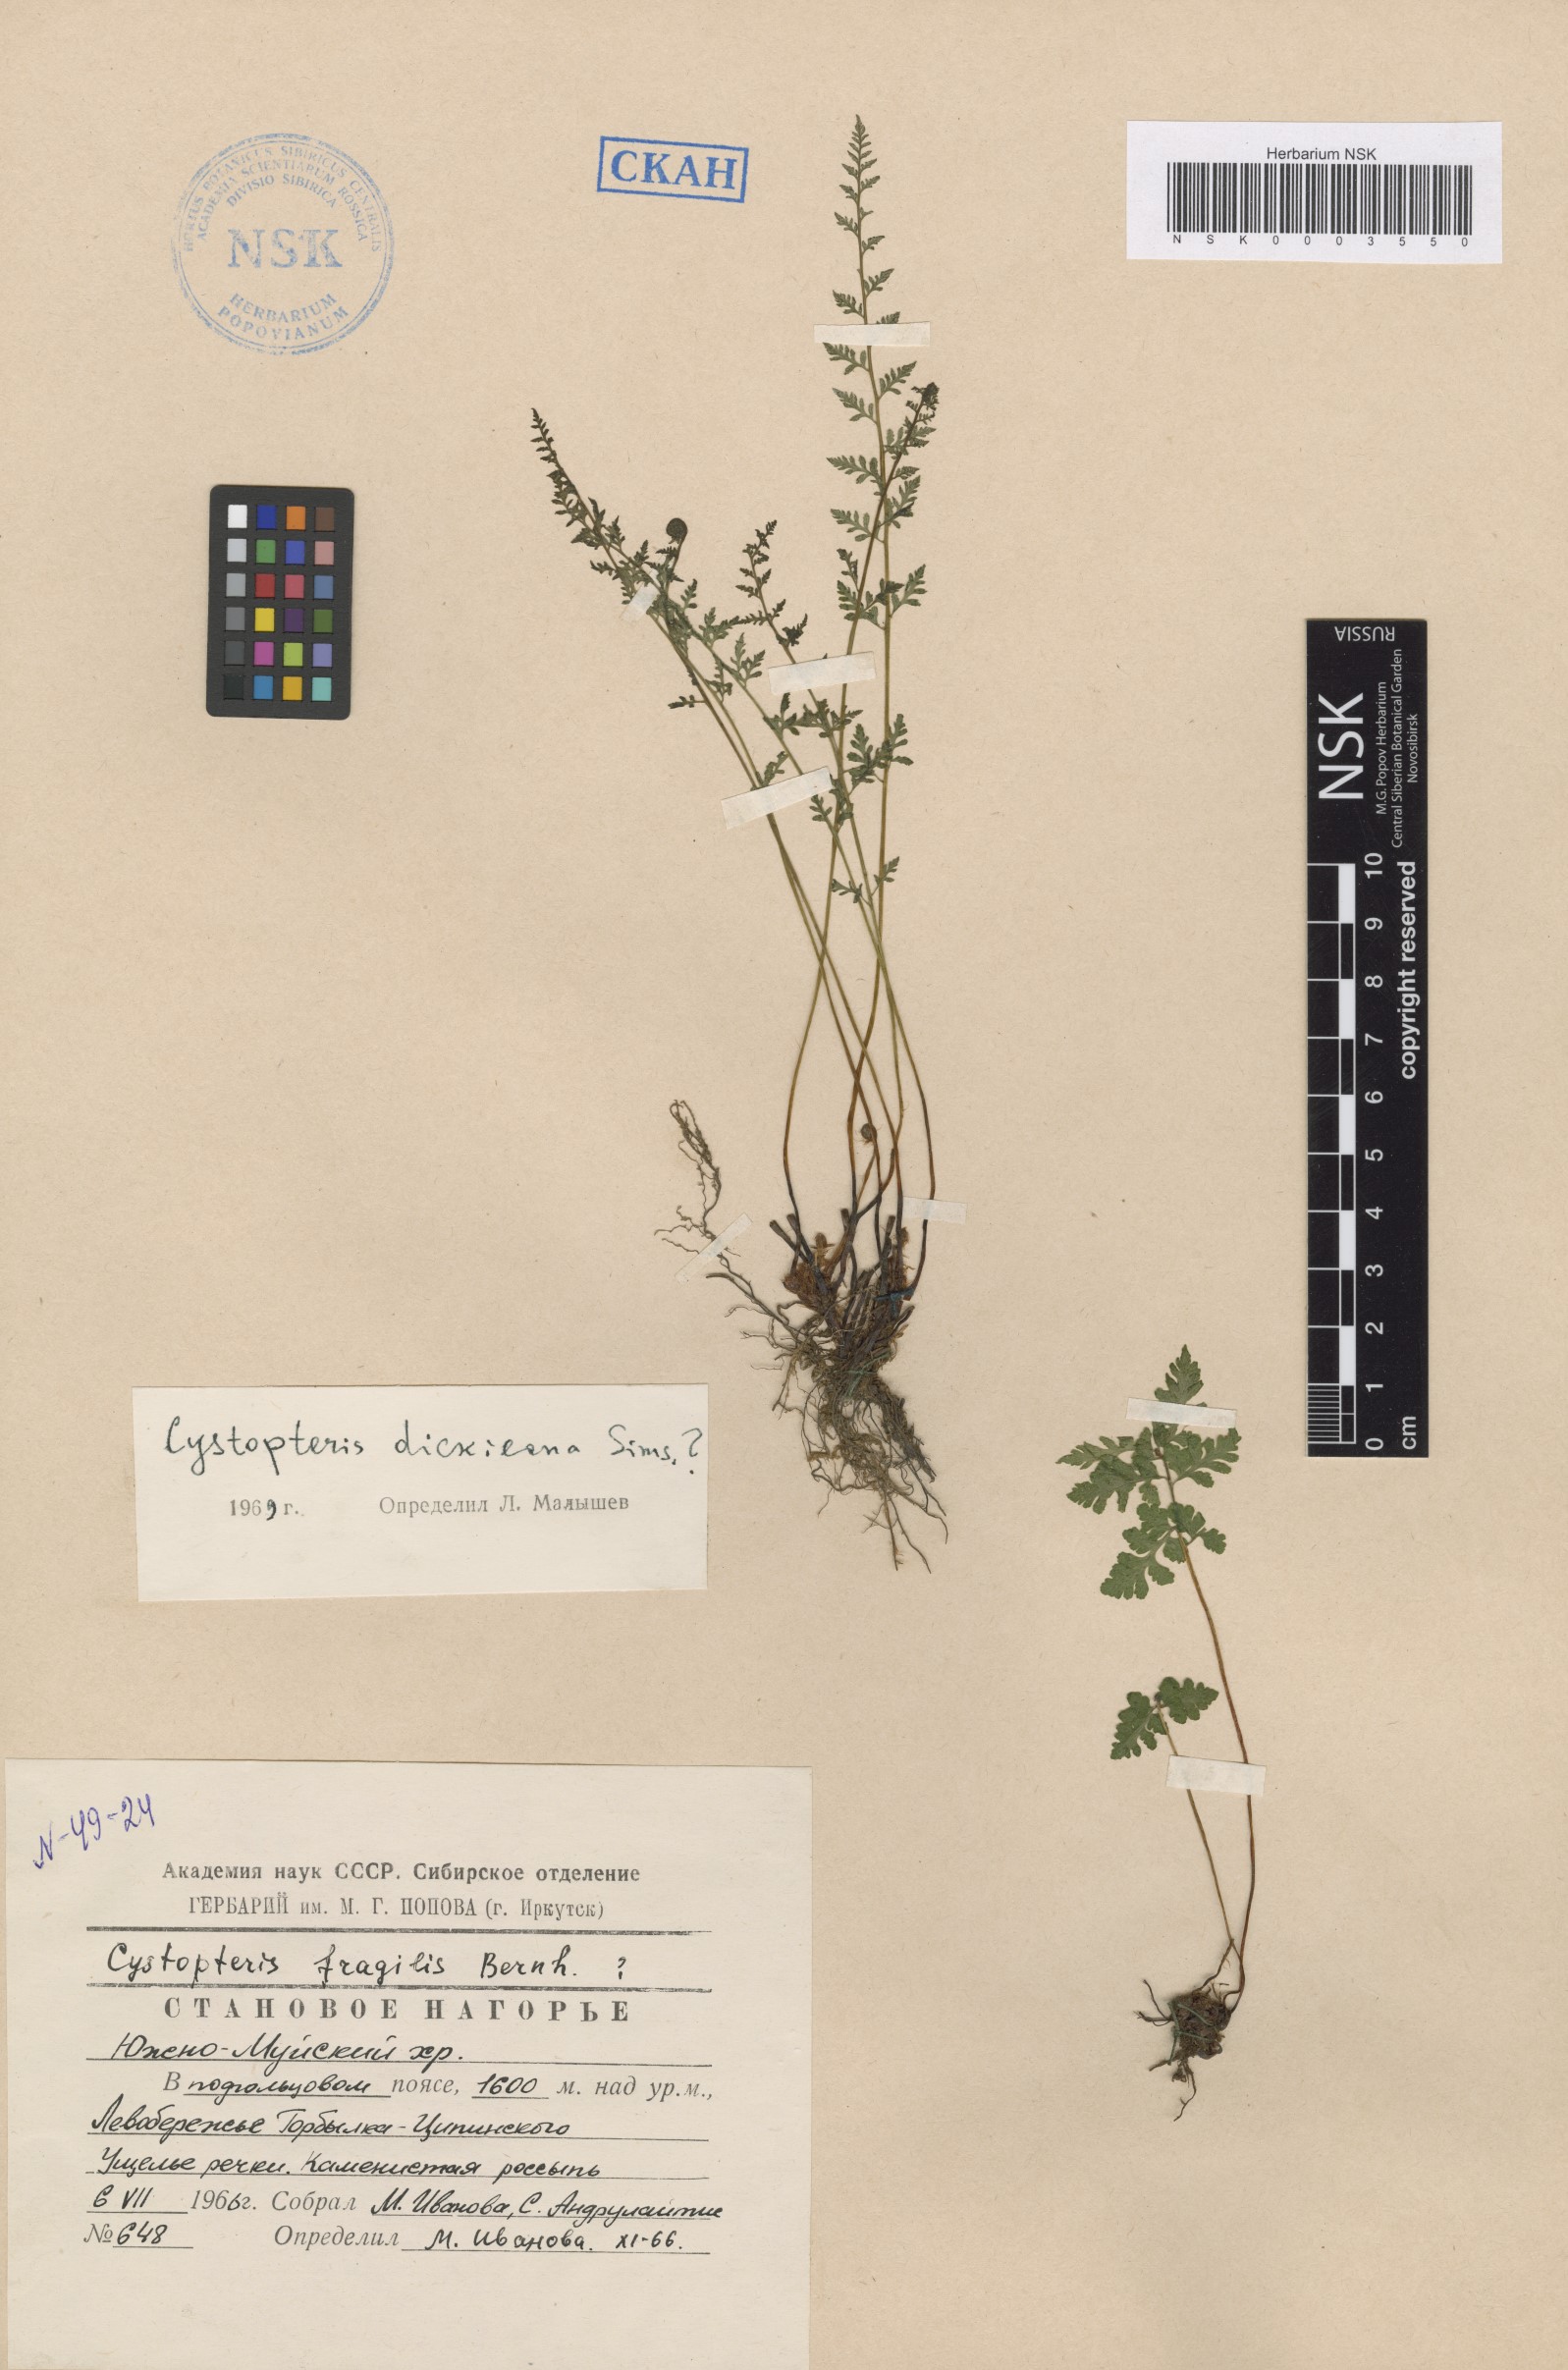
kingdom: Plantae
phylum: Tracheophyta
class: Polypodiopsida
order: Polypodiales
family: Cystopteridaceae
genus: Cystopteris
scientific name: Cystopteris dickieana
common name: Dickie's bladder-fern
